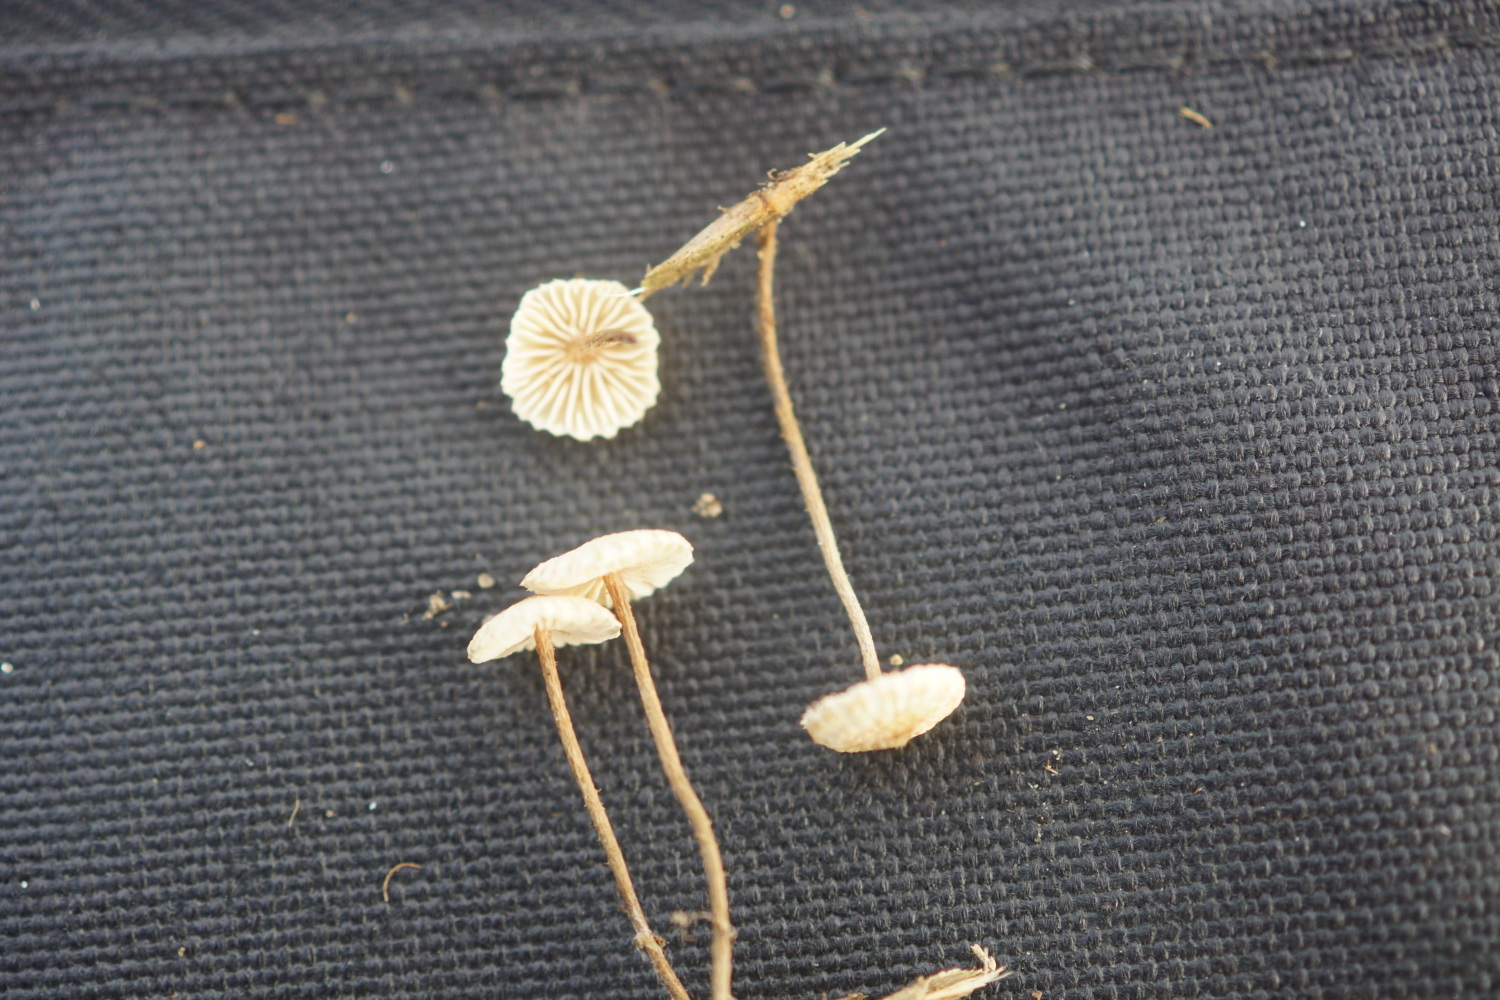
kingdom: Fungi
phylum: Basidiomycota
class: Agaricomycetes
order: Agaricales
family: Marasmiaceae
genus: Crinipellis
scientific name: Crinipellis scabella
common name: børstefod
